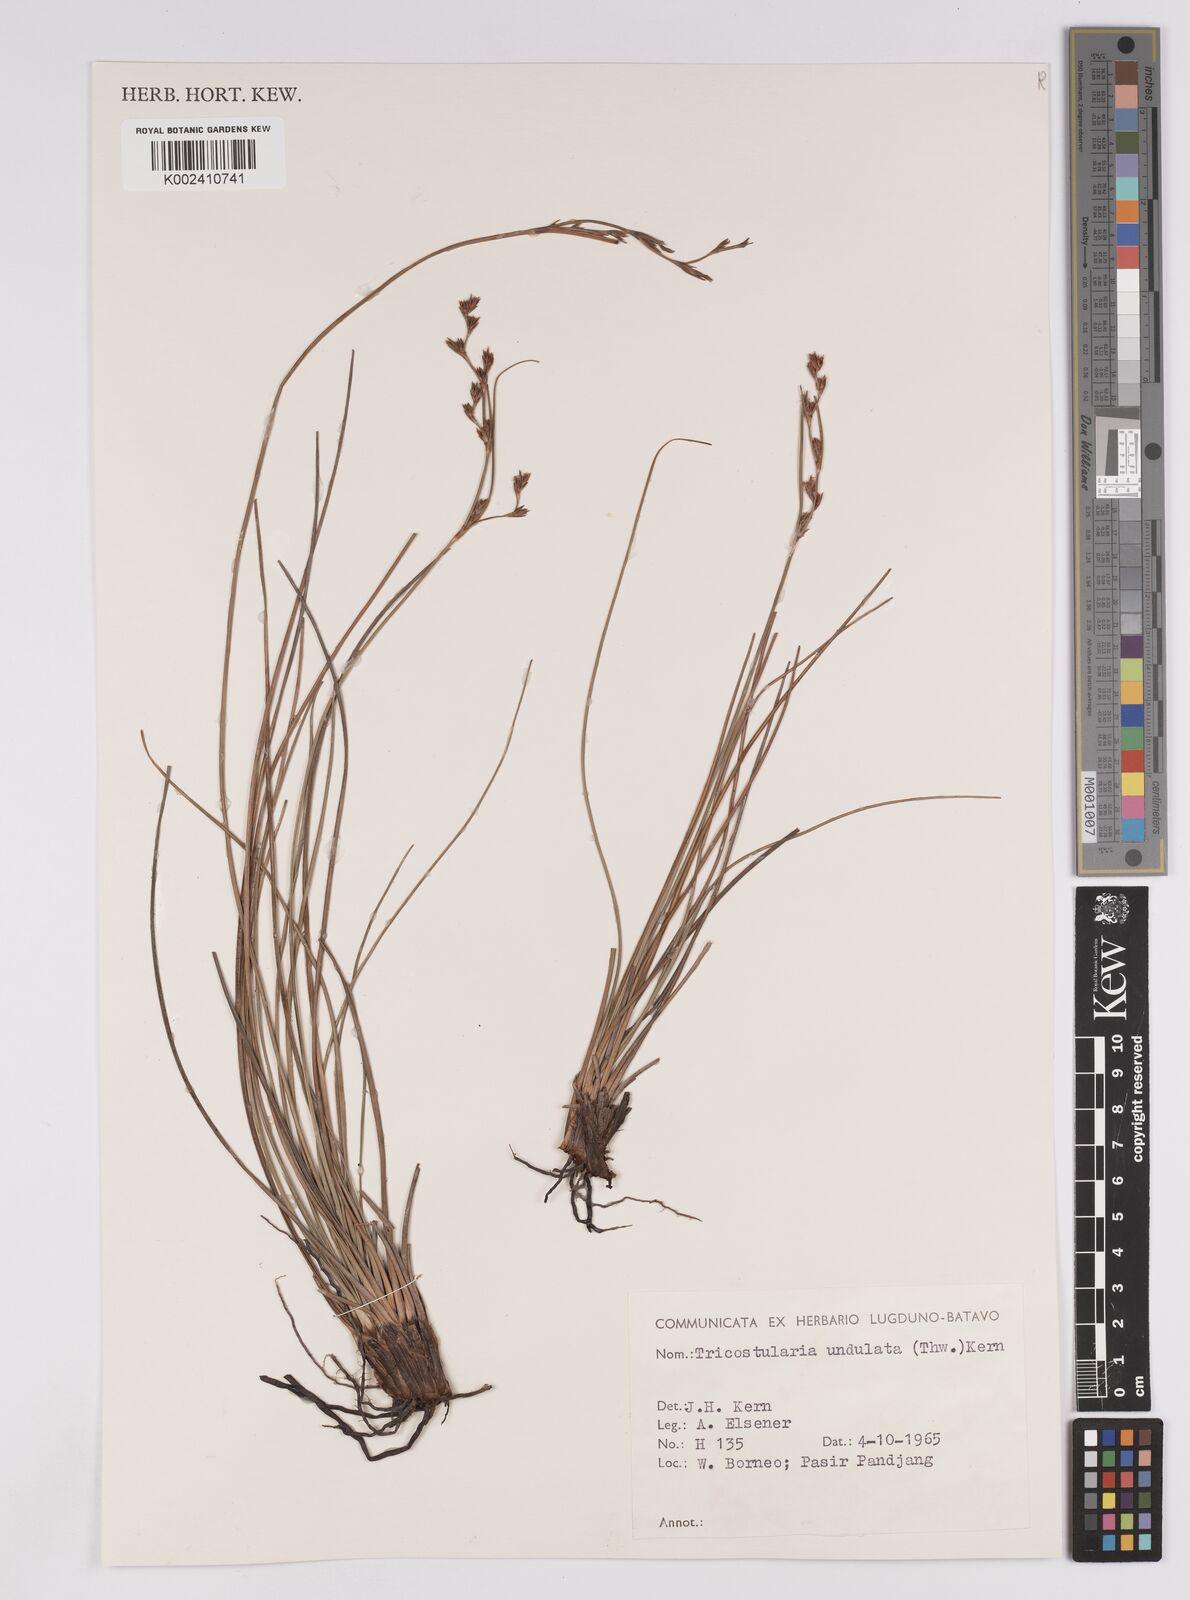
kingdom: Plantae
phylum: Tracheophyta
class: Liliopsida
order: Poales
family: Cyperaceae
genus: Anthelepis
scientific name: Anthelepis undulata
